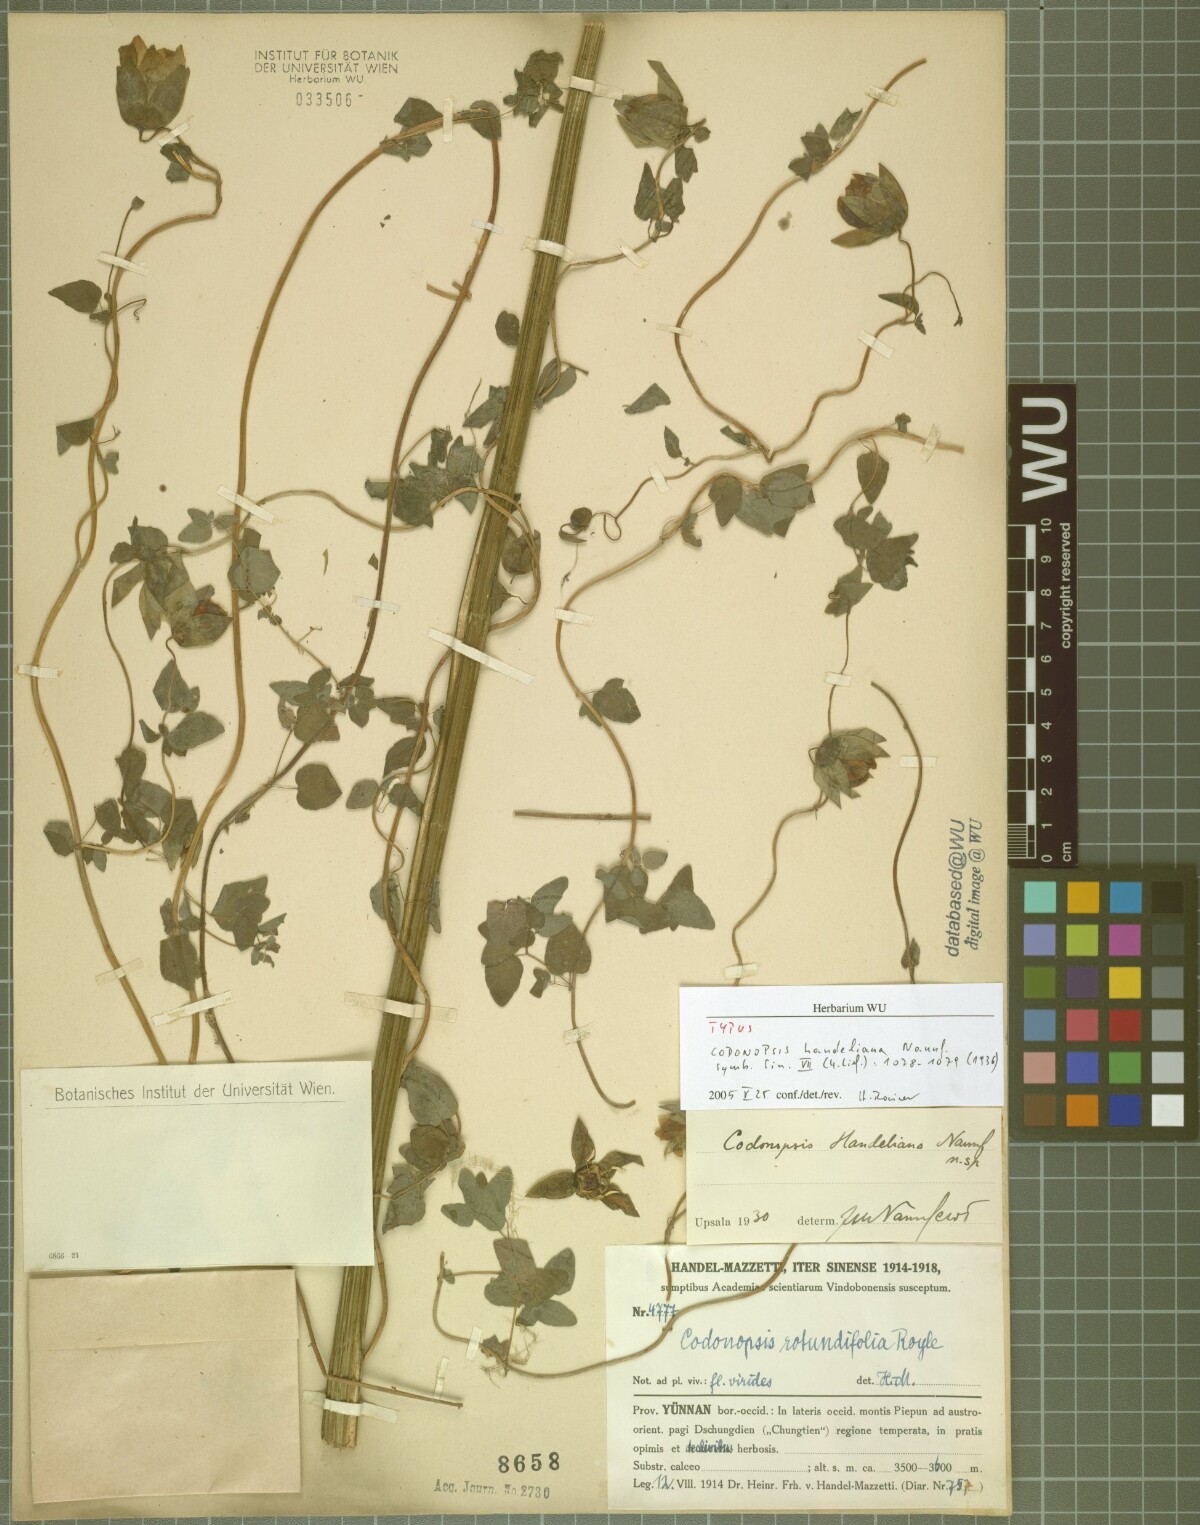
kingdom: Plantae
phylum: Tracheophyta
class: Magnoliopsida
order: Asterales
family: Campanulaceae
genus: Codonopsis
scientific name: Codonopsis pilosula
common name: Bellflower
